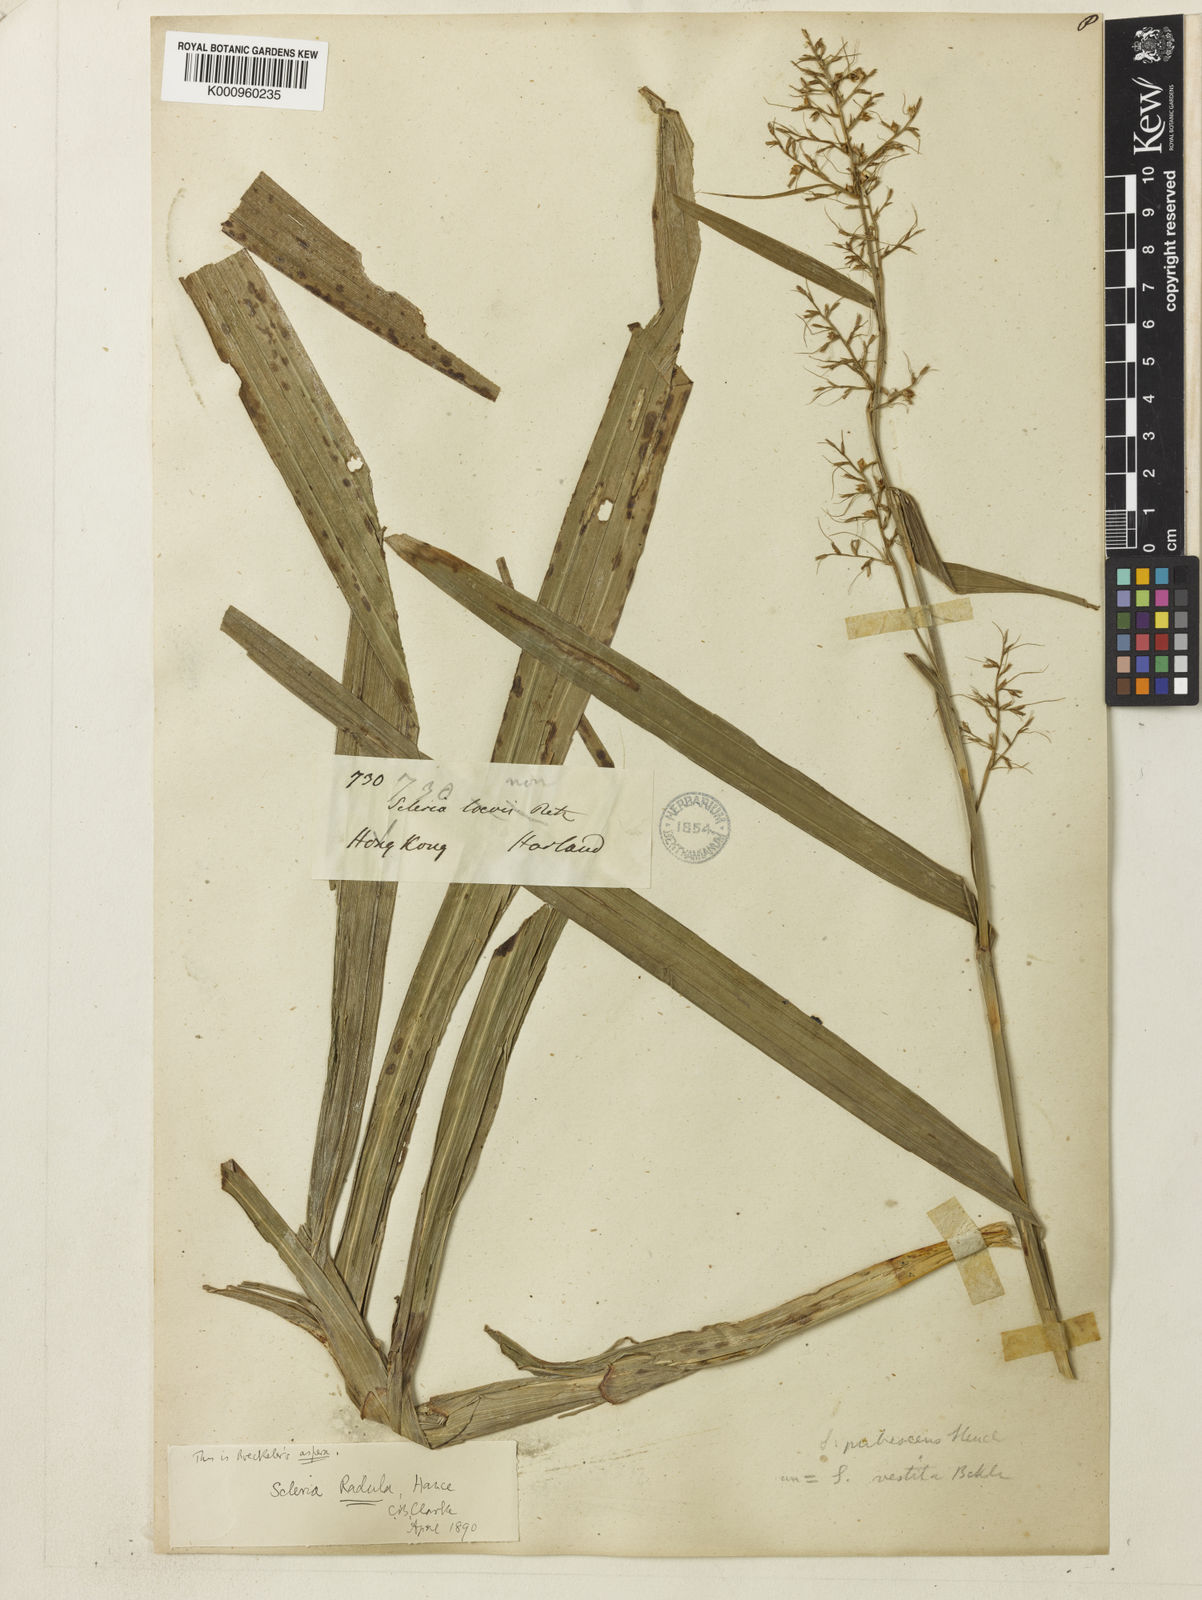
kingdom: Plantae
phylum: Tracheophyta
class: Liliopsida
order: Poales
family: Cyperaceae
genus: Scleria
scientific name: Scleria radula
